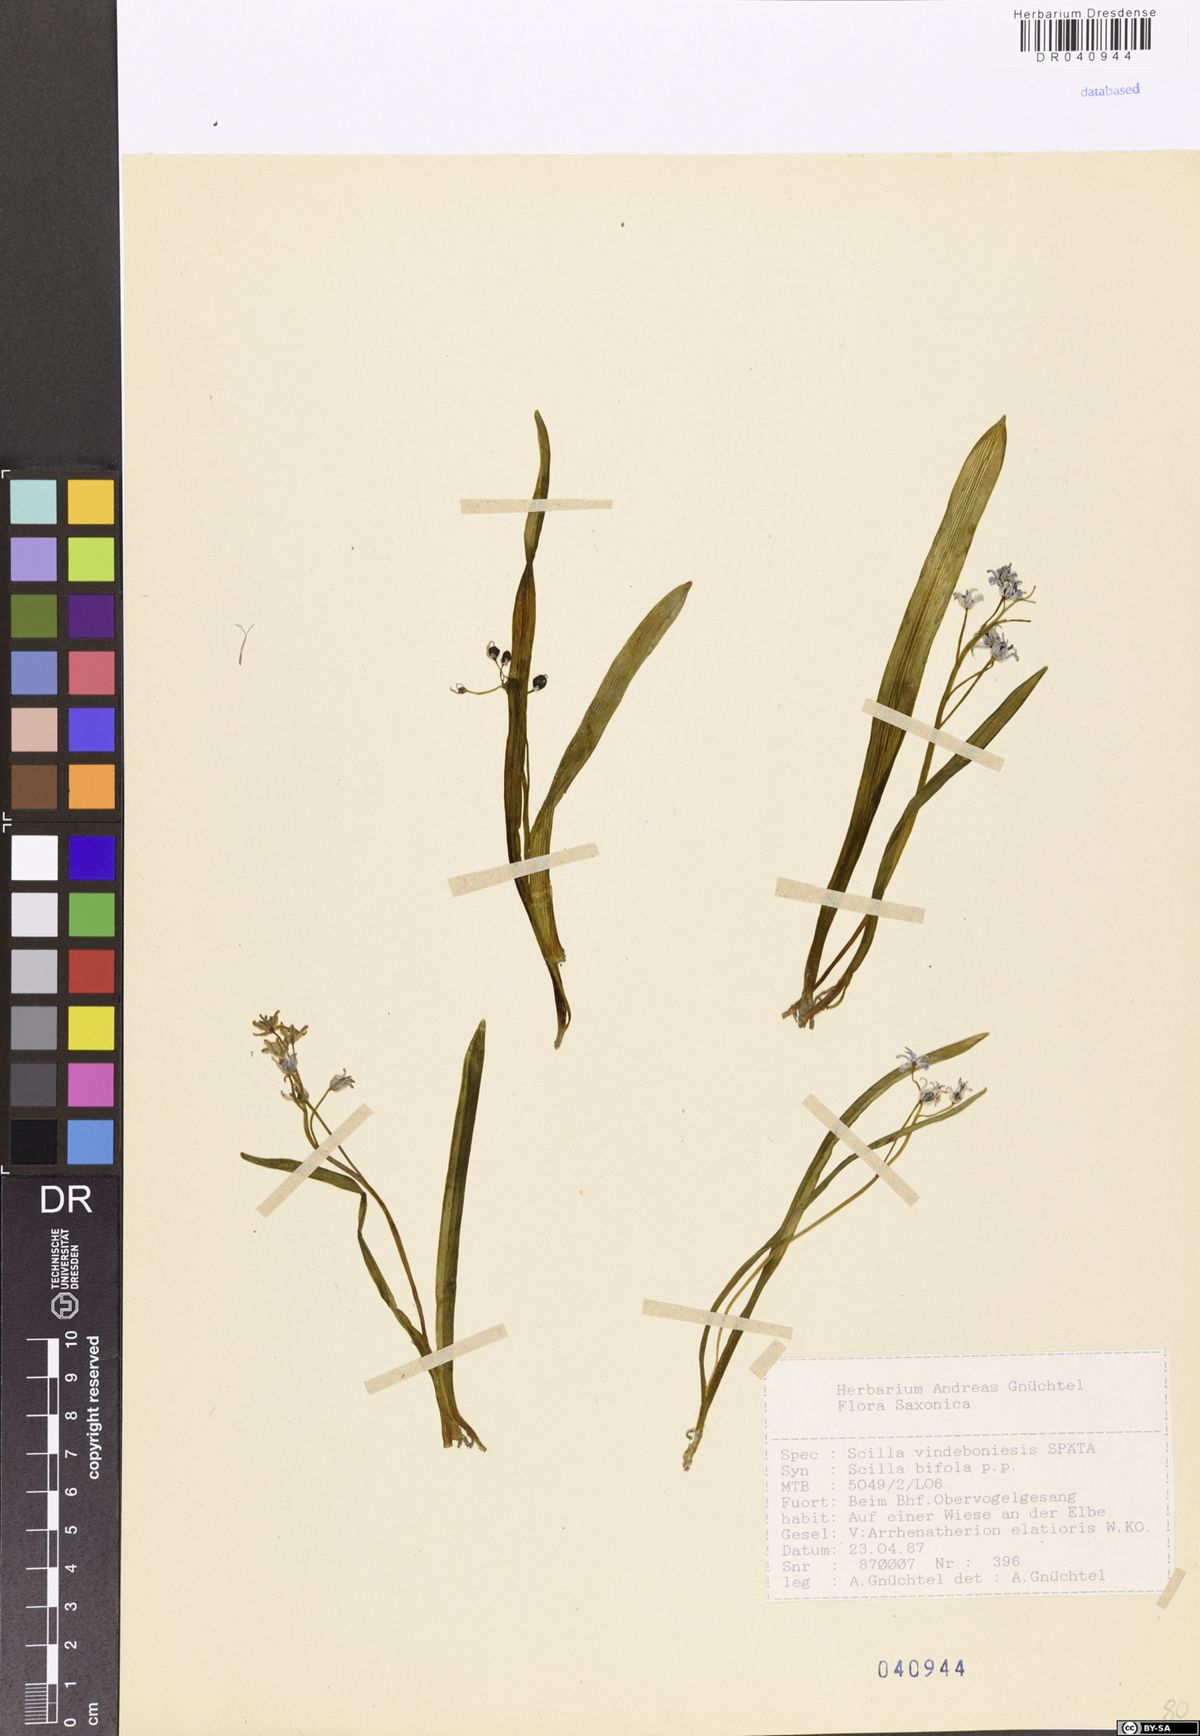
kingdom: Plantae
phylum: Tracheophyta
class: Liliopsida
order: Asparagales
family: Asparagaceae
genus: Scilla
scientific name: Scilla vindobonensis
